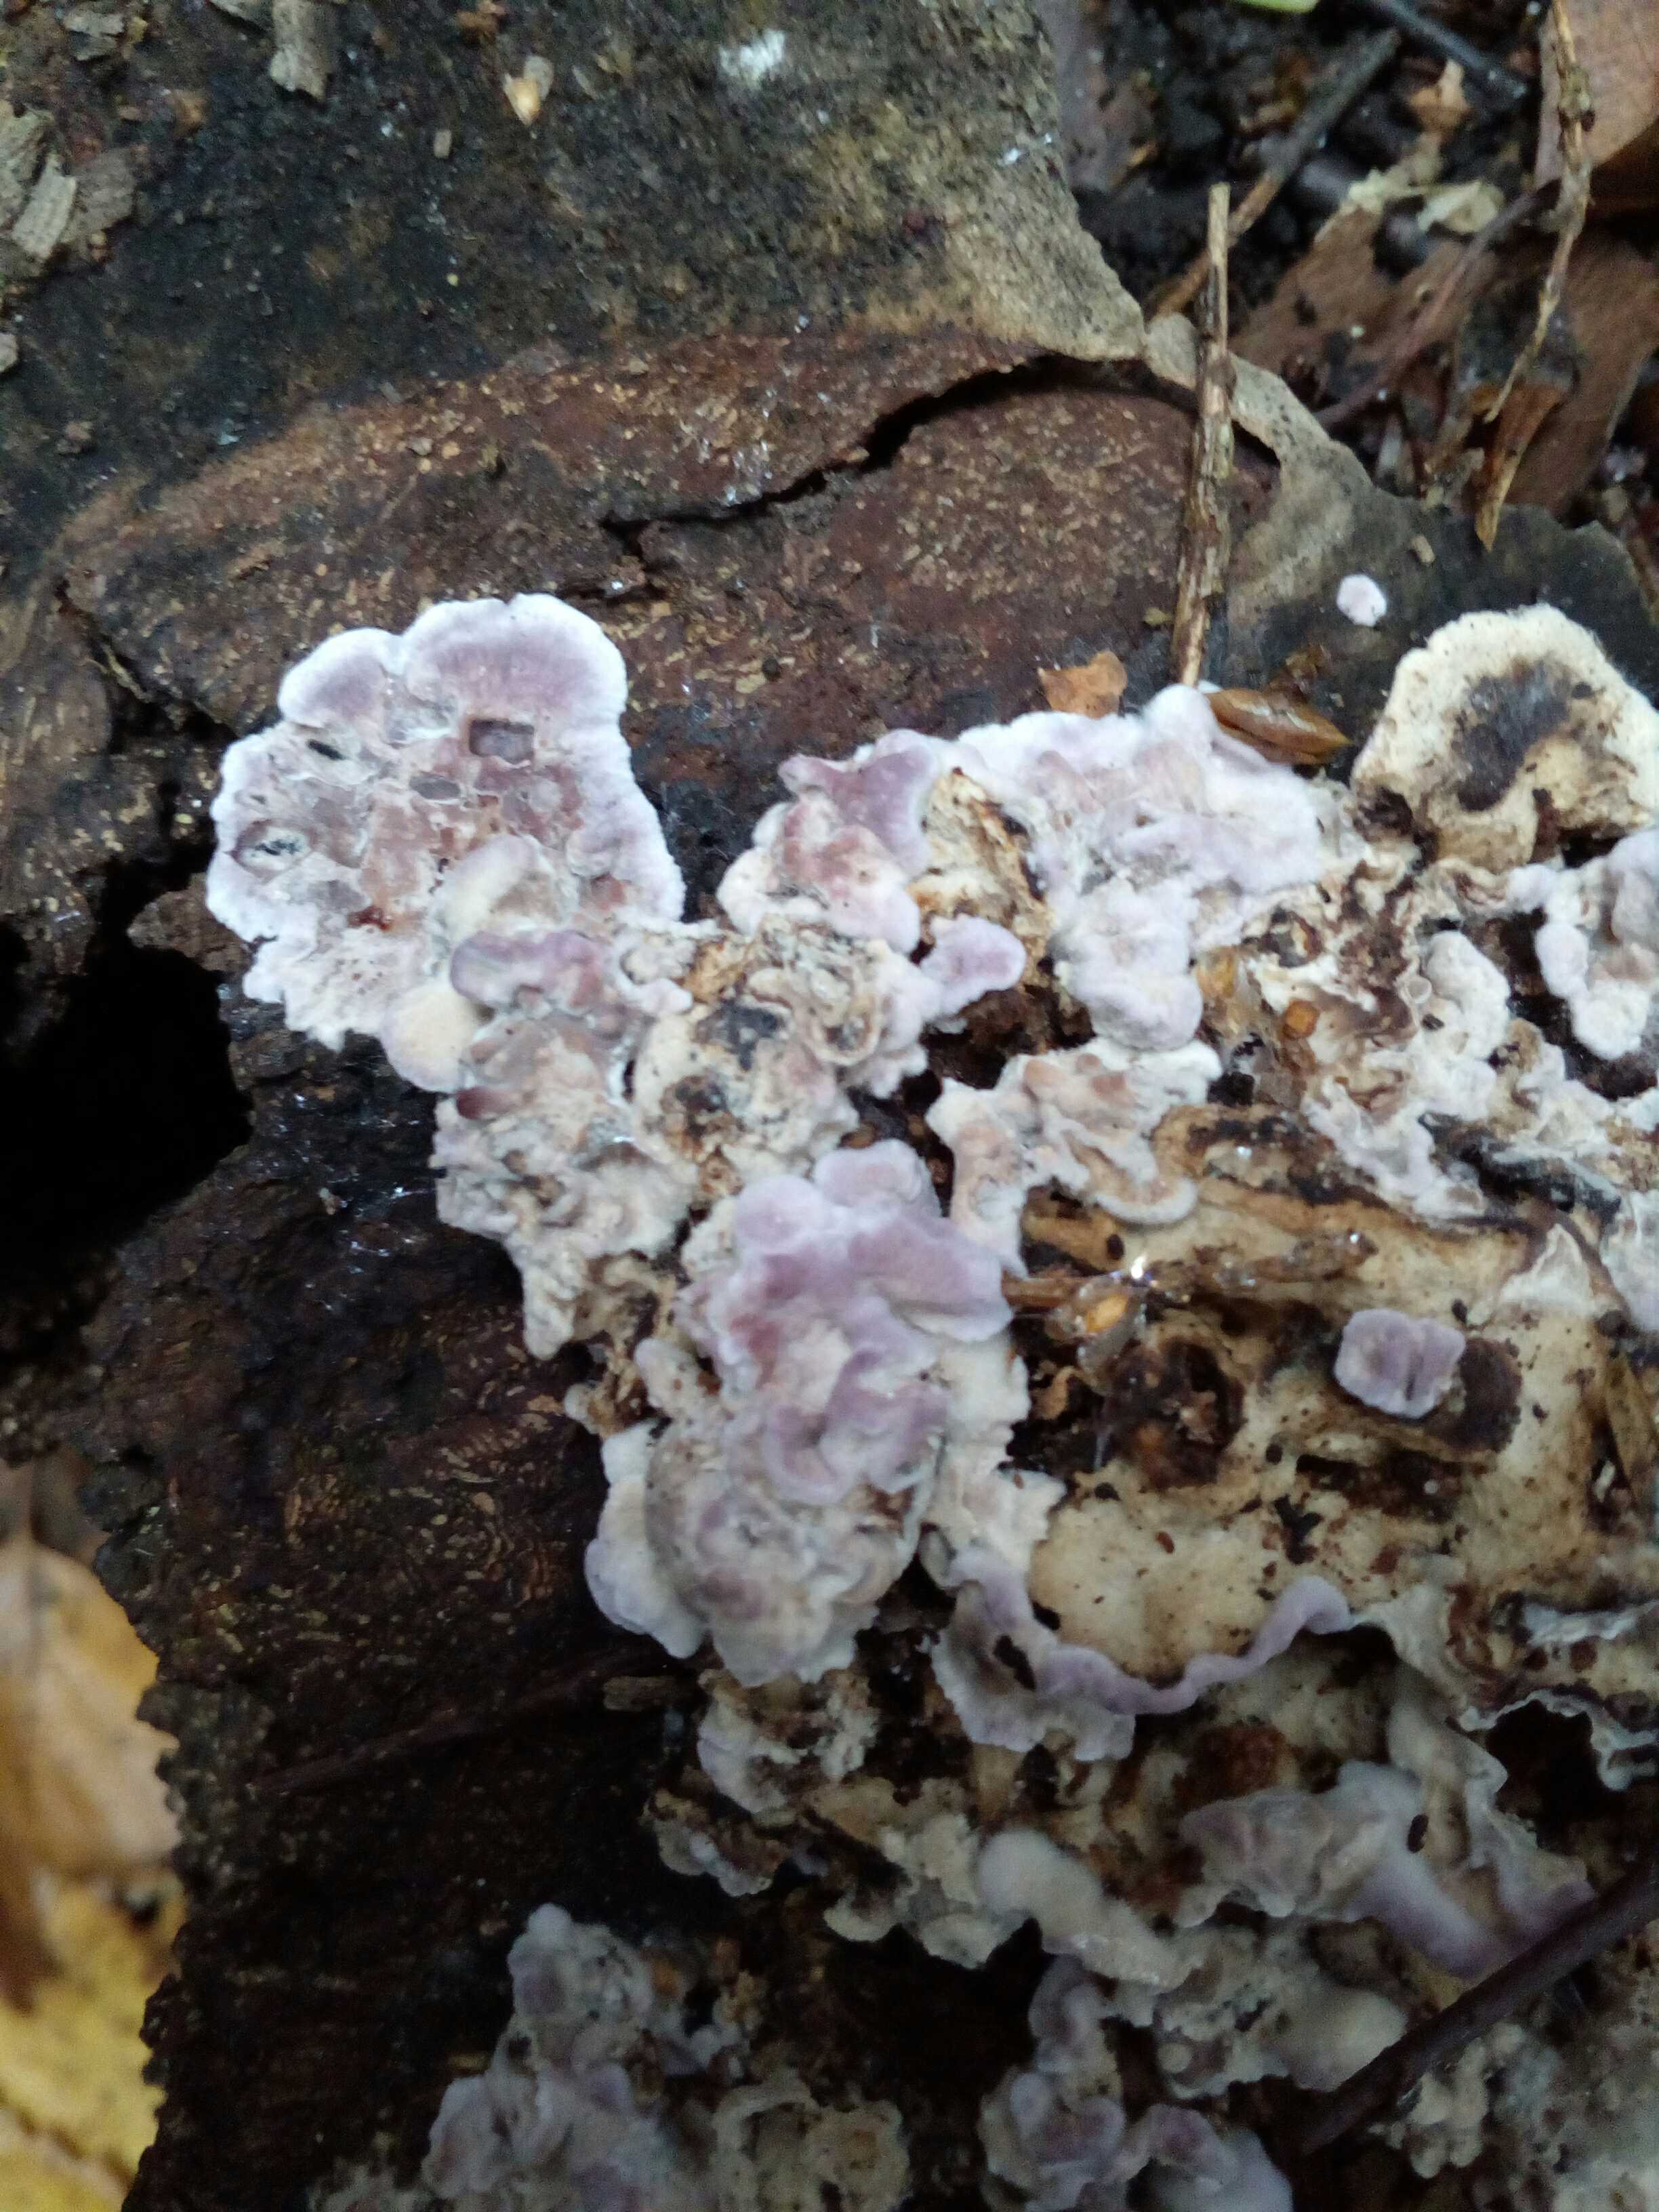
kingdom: Fungi
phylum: Basidiomycota
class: Agaricomycetes
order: Agaricales
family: Cyphellaceae
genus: Chondrostereum
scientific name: Chondrostereum purpureum
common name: purpurlædersvamp
